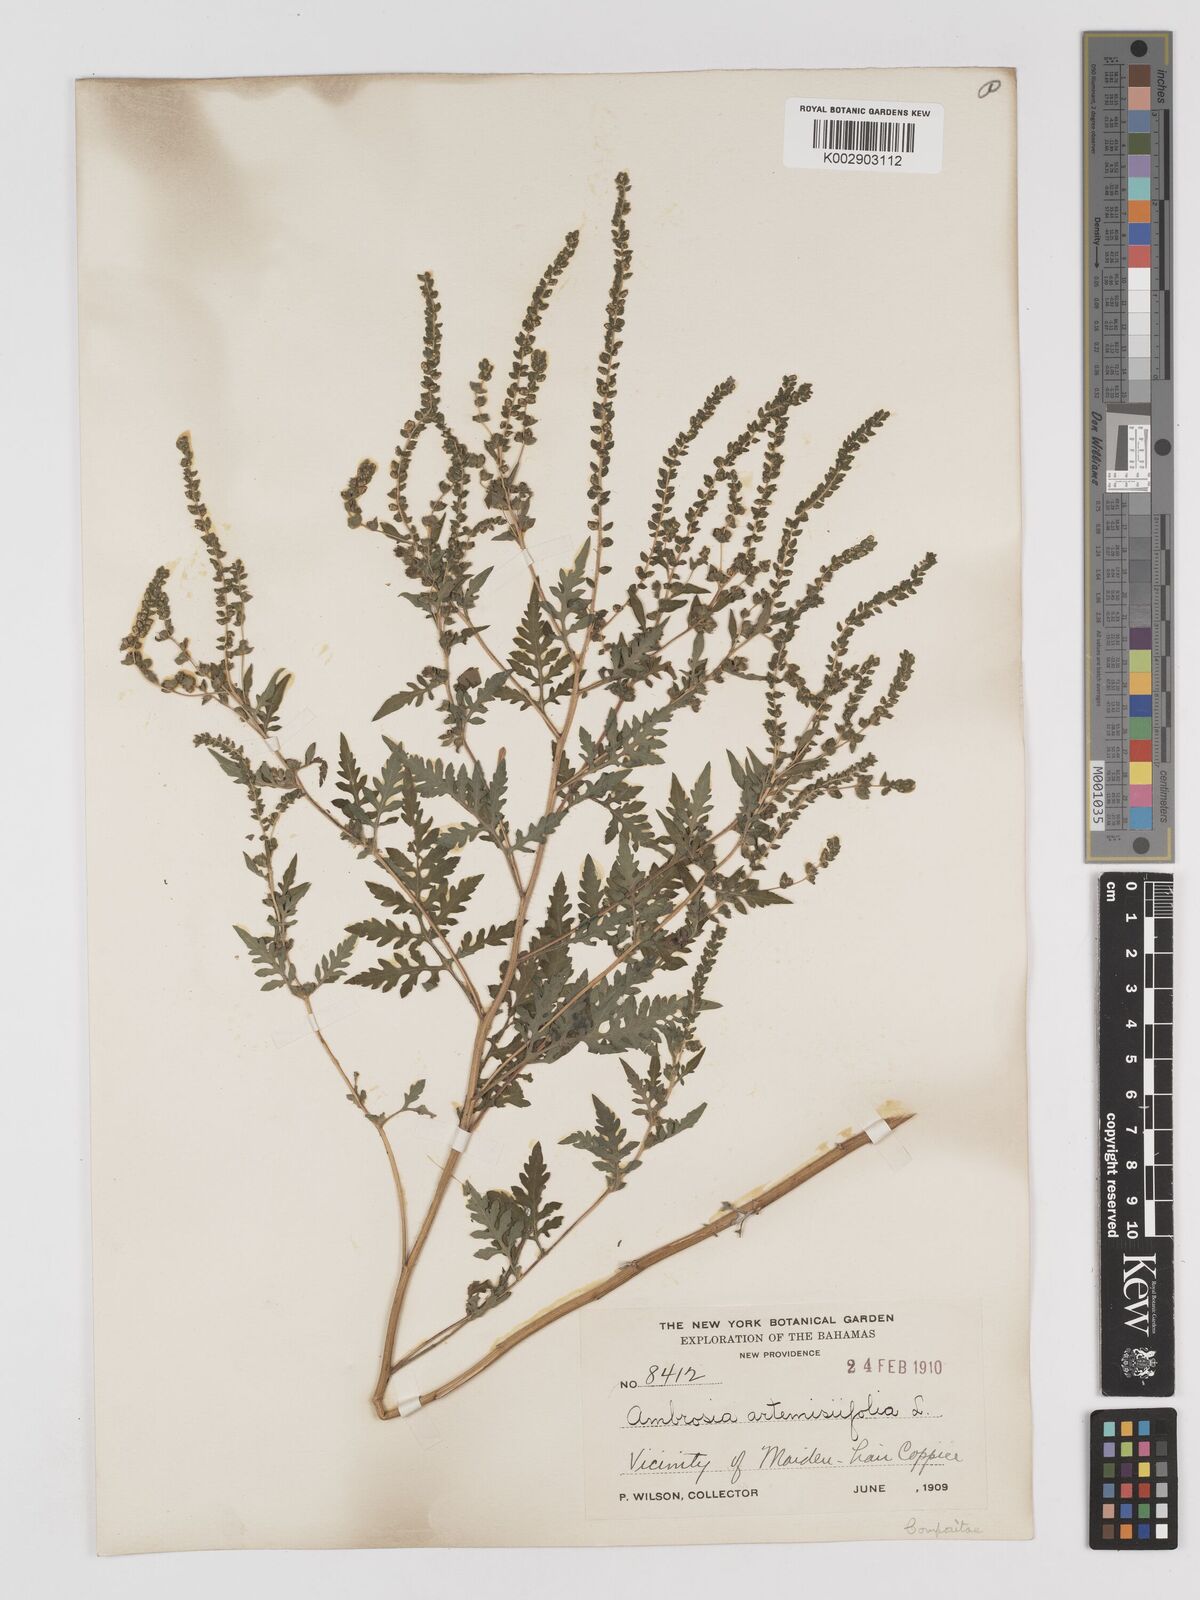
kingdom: Plantae
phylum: Tracheophyta
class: Magnoliopsida
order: Asterales
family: Asteraceae
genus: Ambrosia
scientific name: Ambrosia artemisiifolia
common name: Annual ragweed
